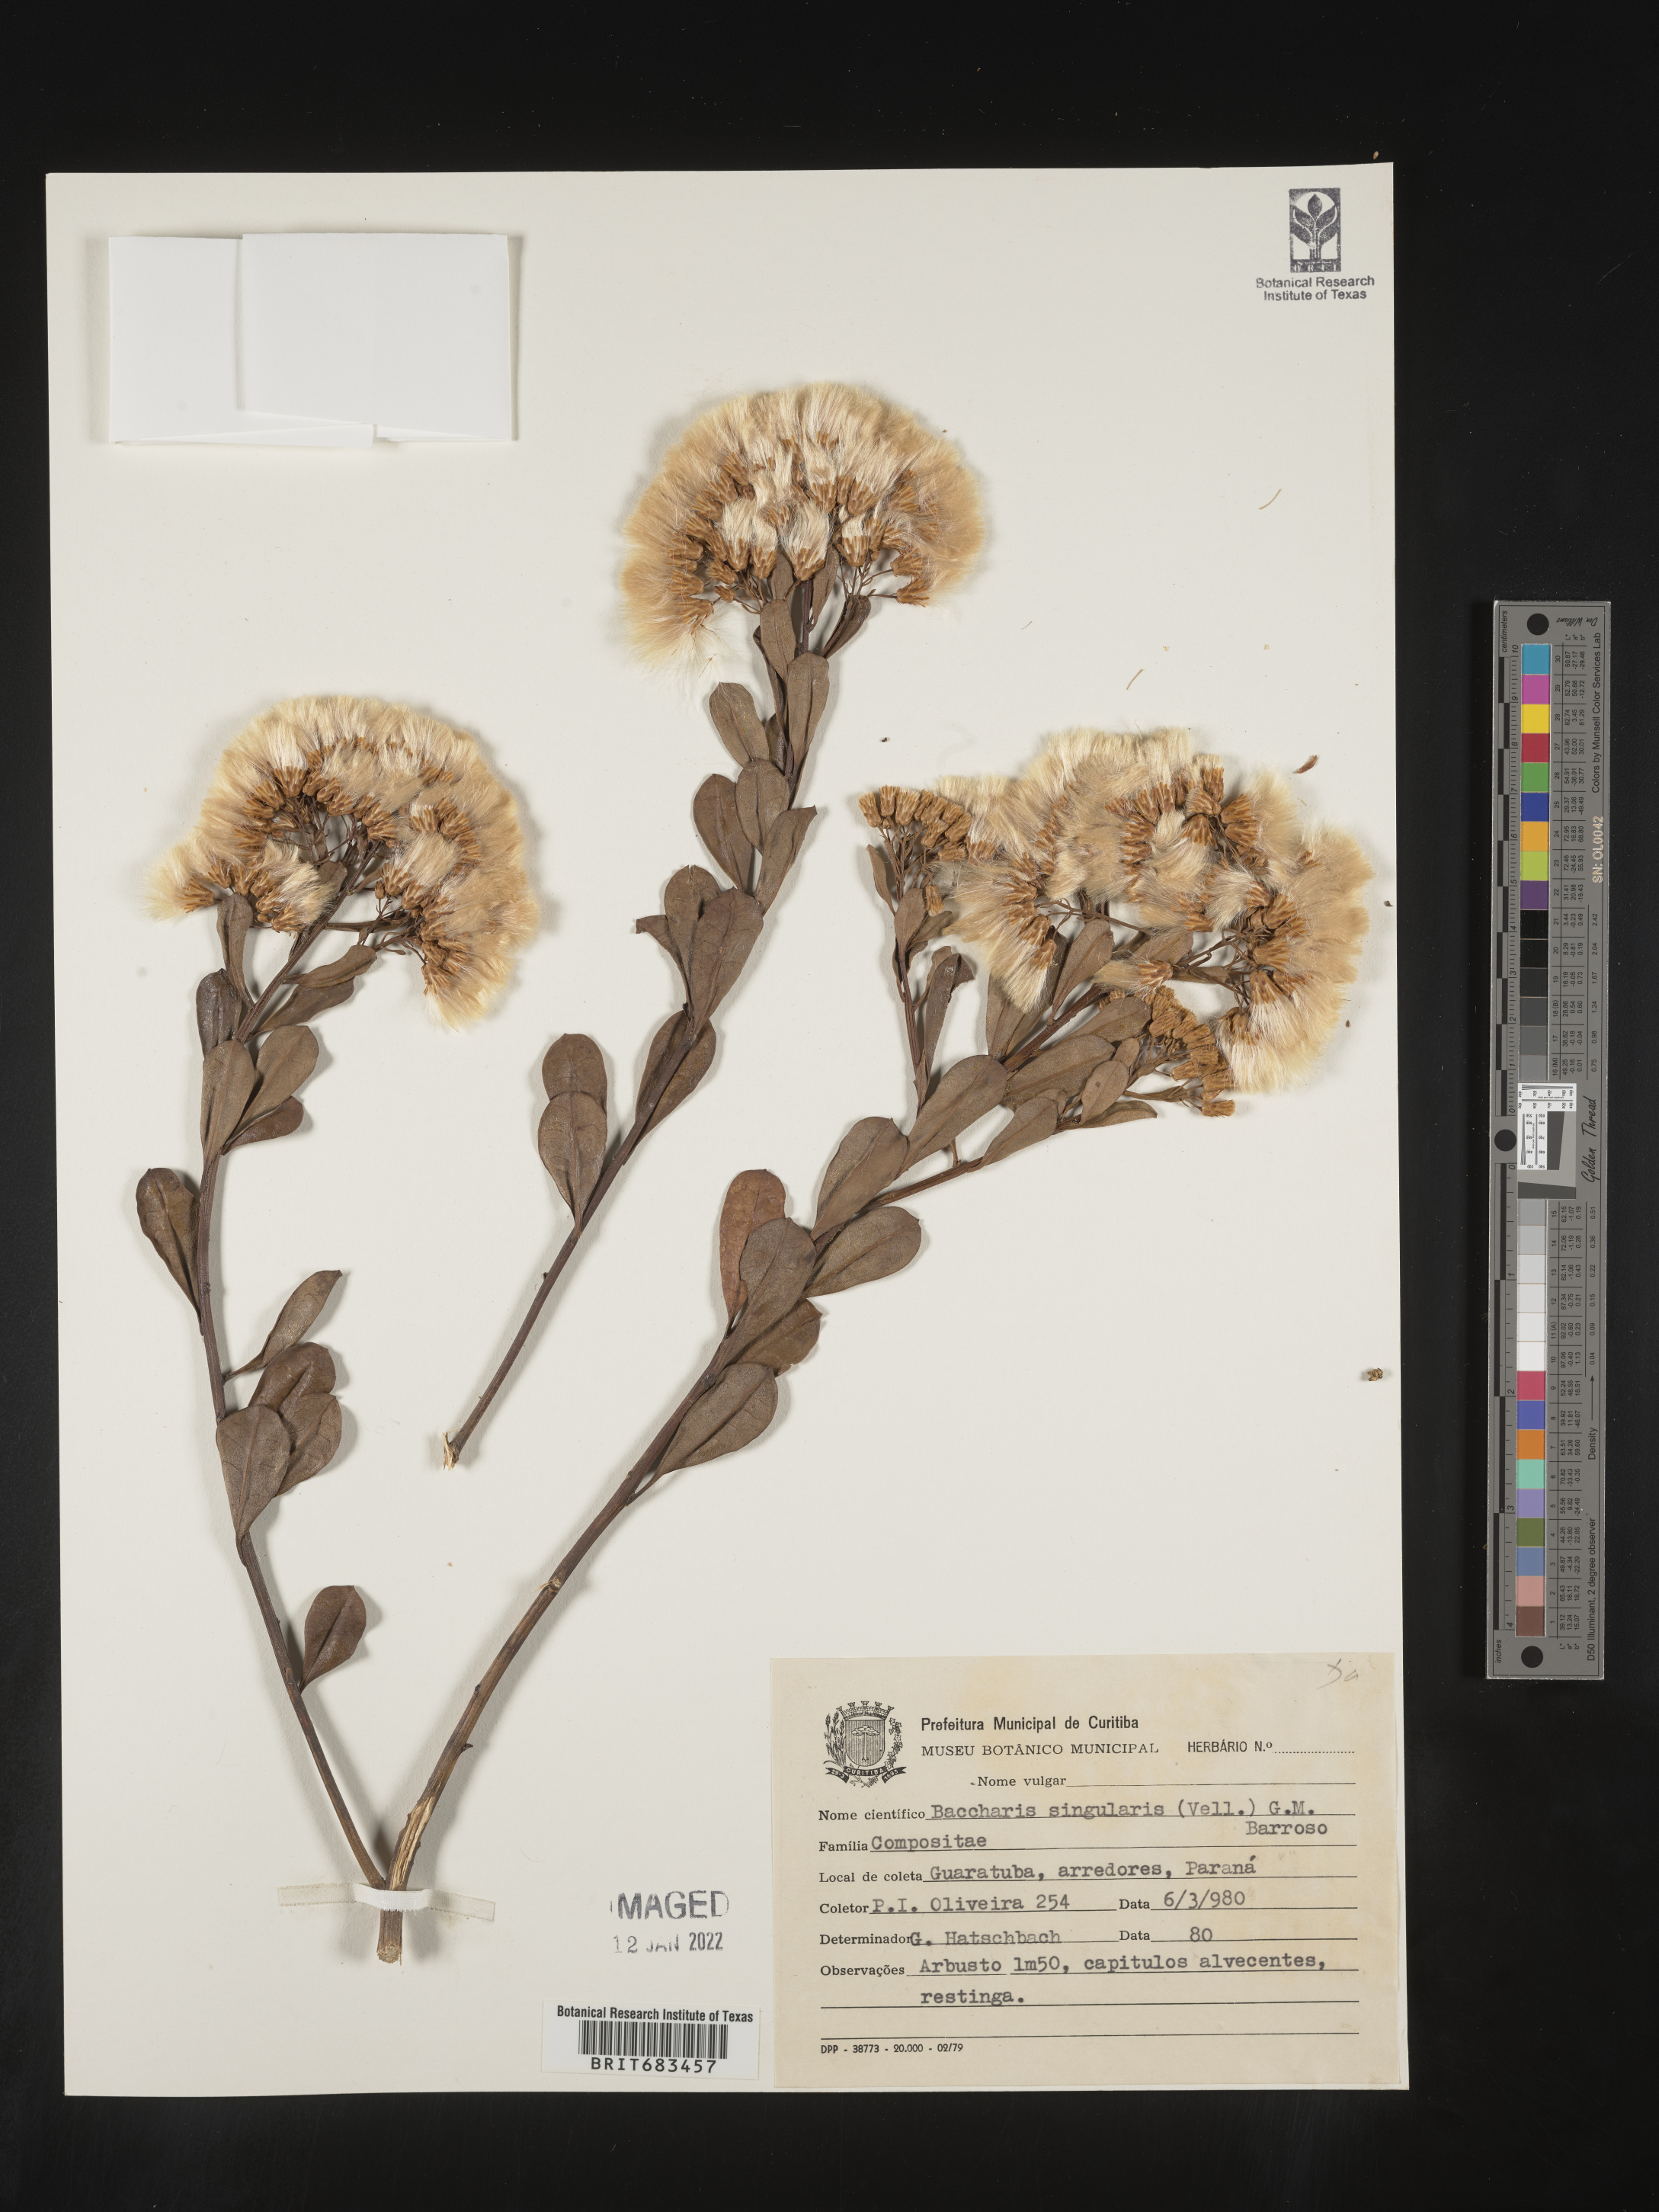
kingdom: Plantae
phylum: Tracheophyta
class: Magnoliopsida
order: Asterales
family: Asteraceae
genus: Baccharis
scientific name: Baccharis
